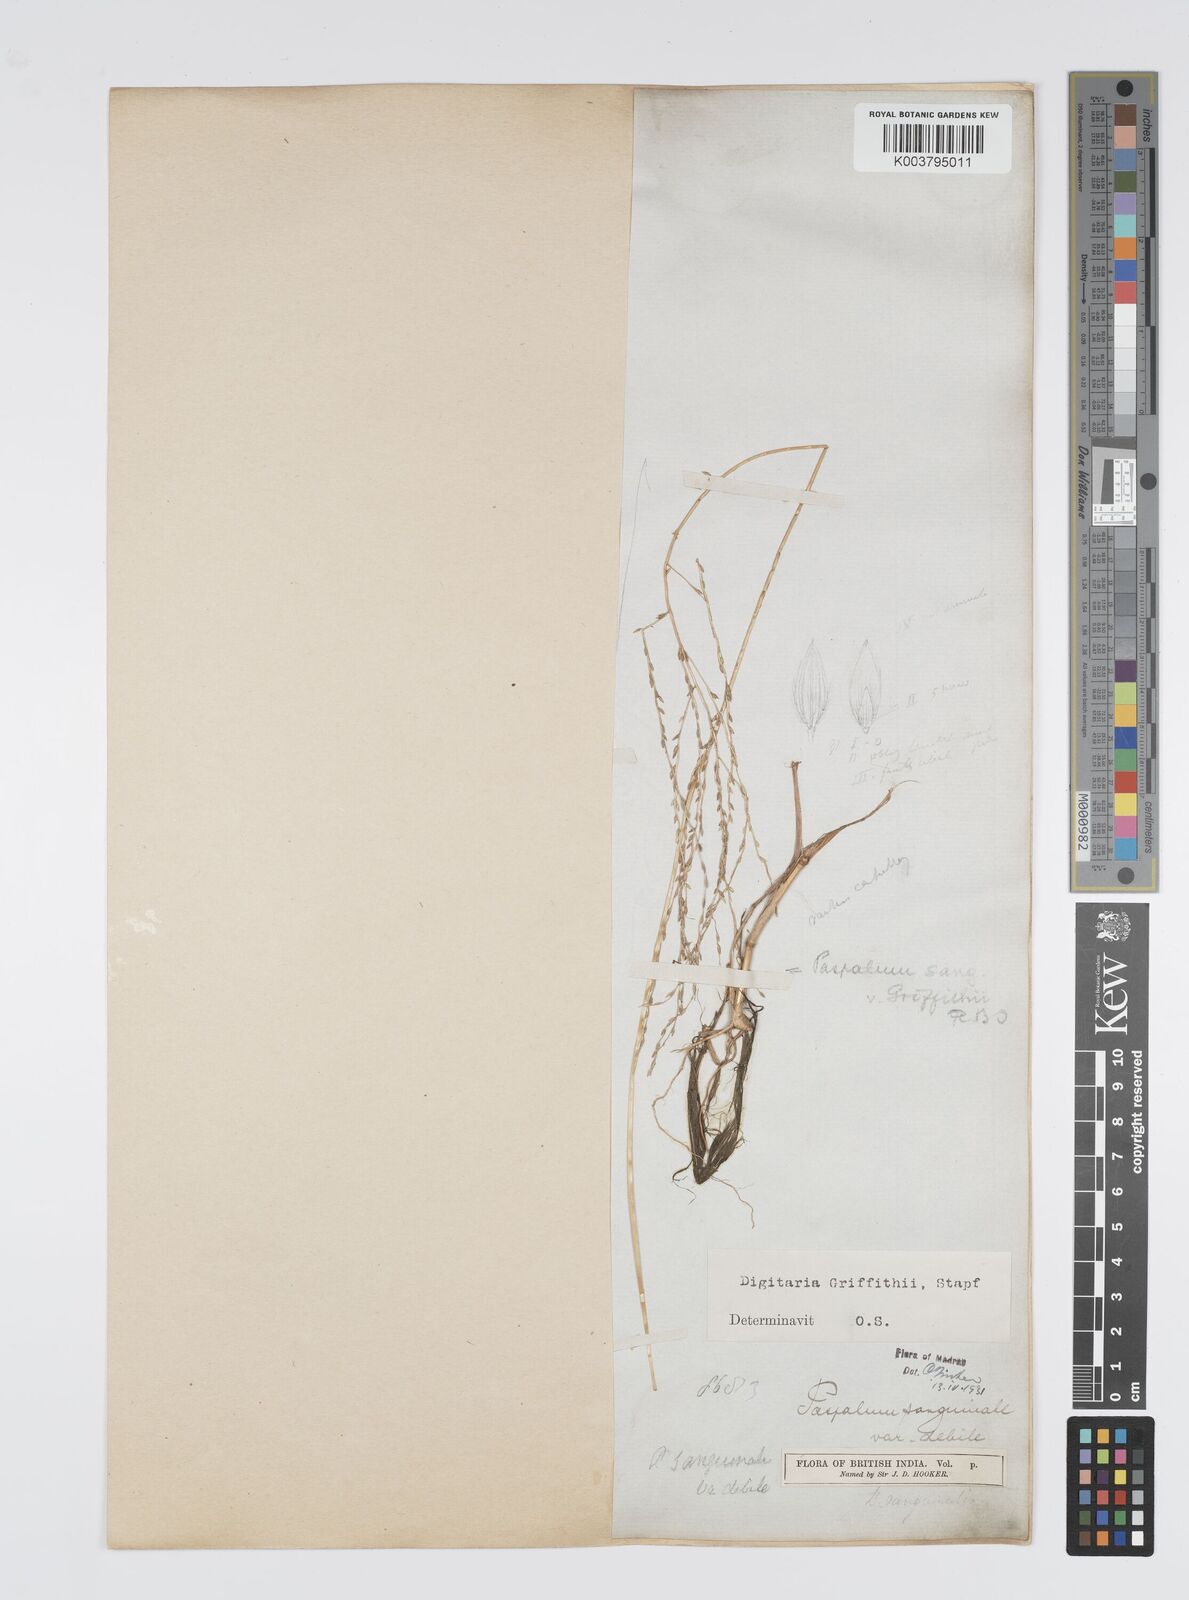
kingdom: Plantae
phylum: Tracheophyta
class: Liliopsida
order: Poales
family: Poaceae
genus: Digitaria
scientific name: Digitaria griffithii
